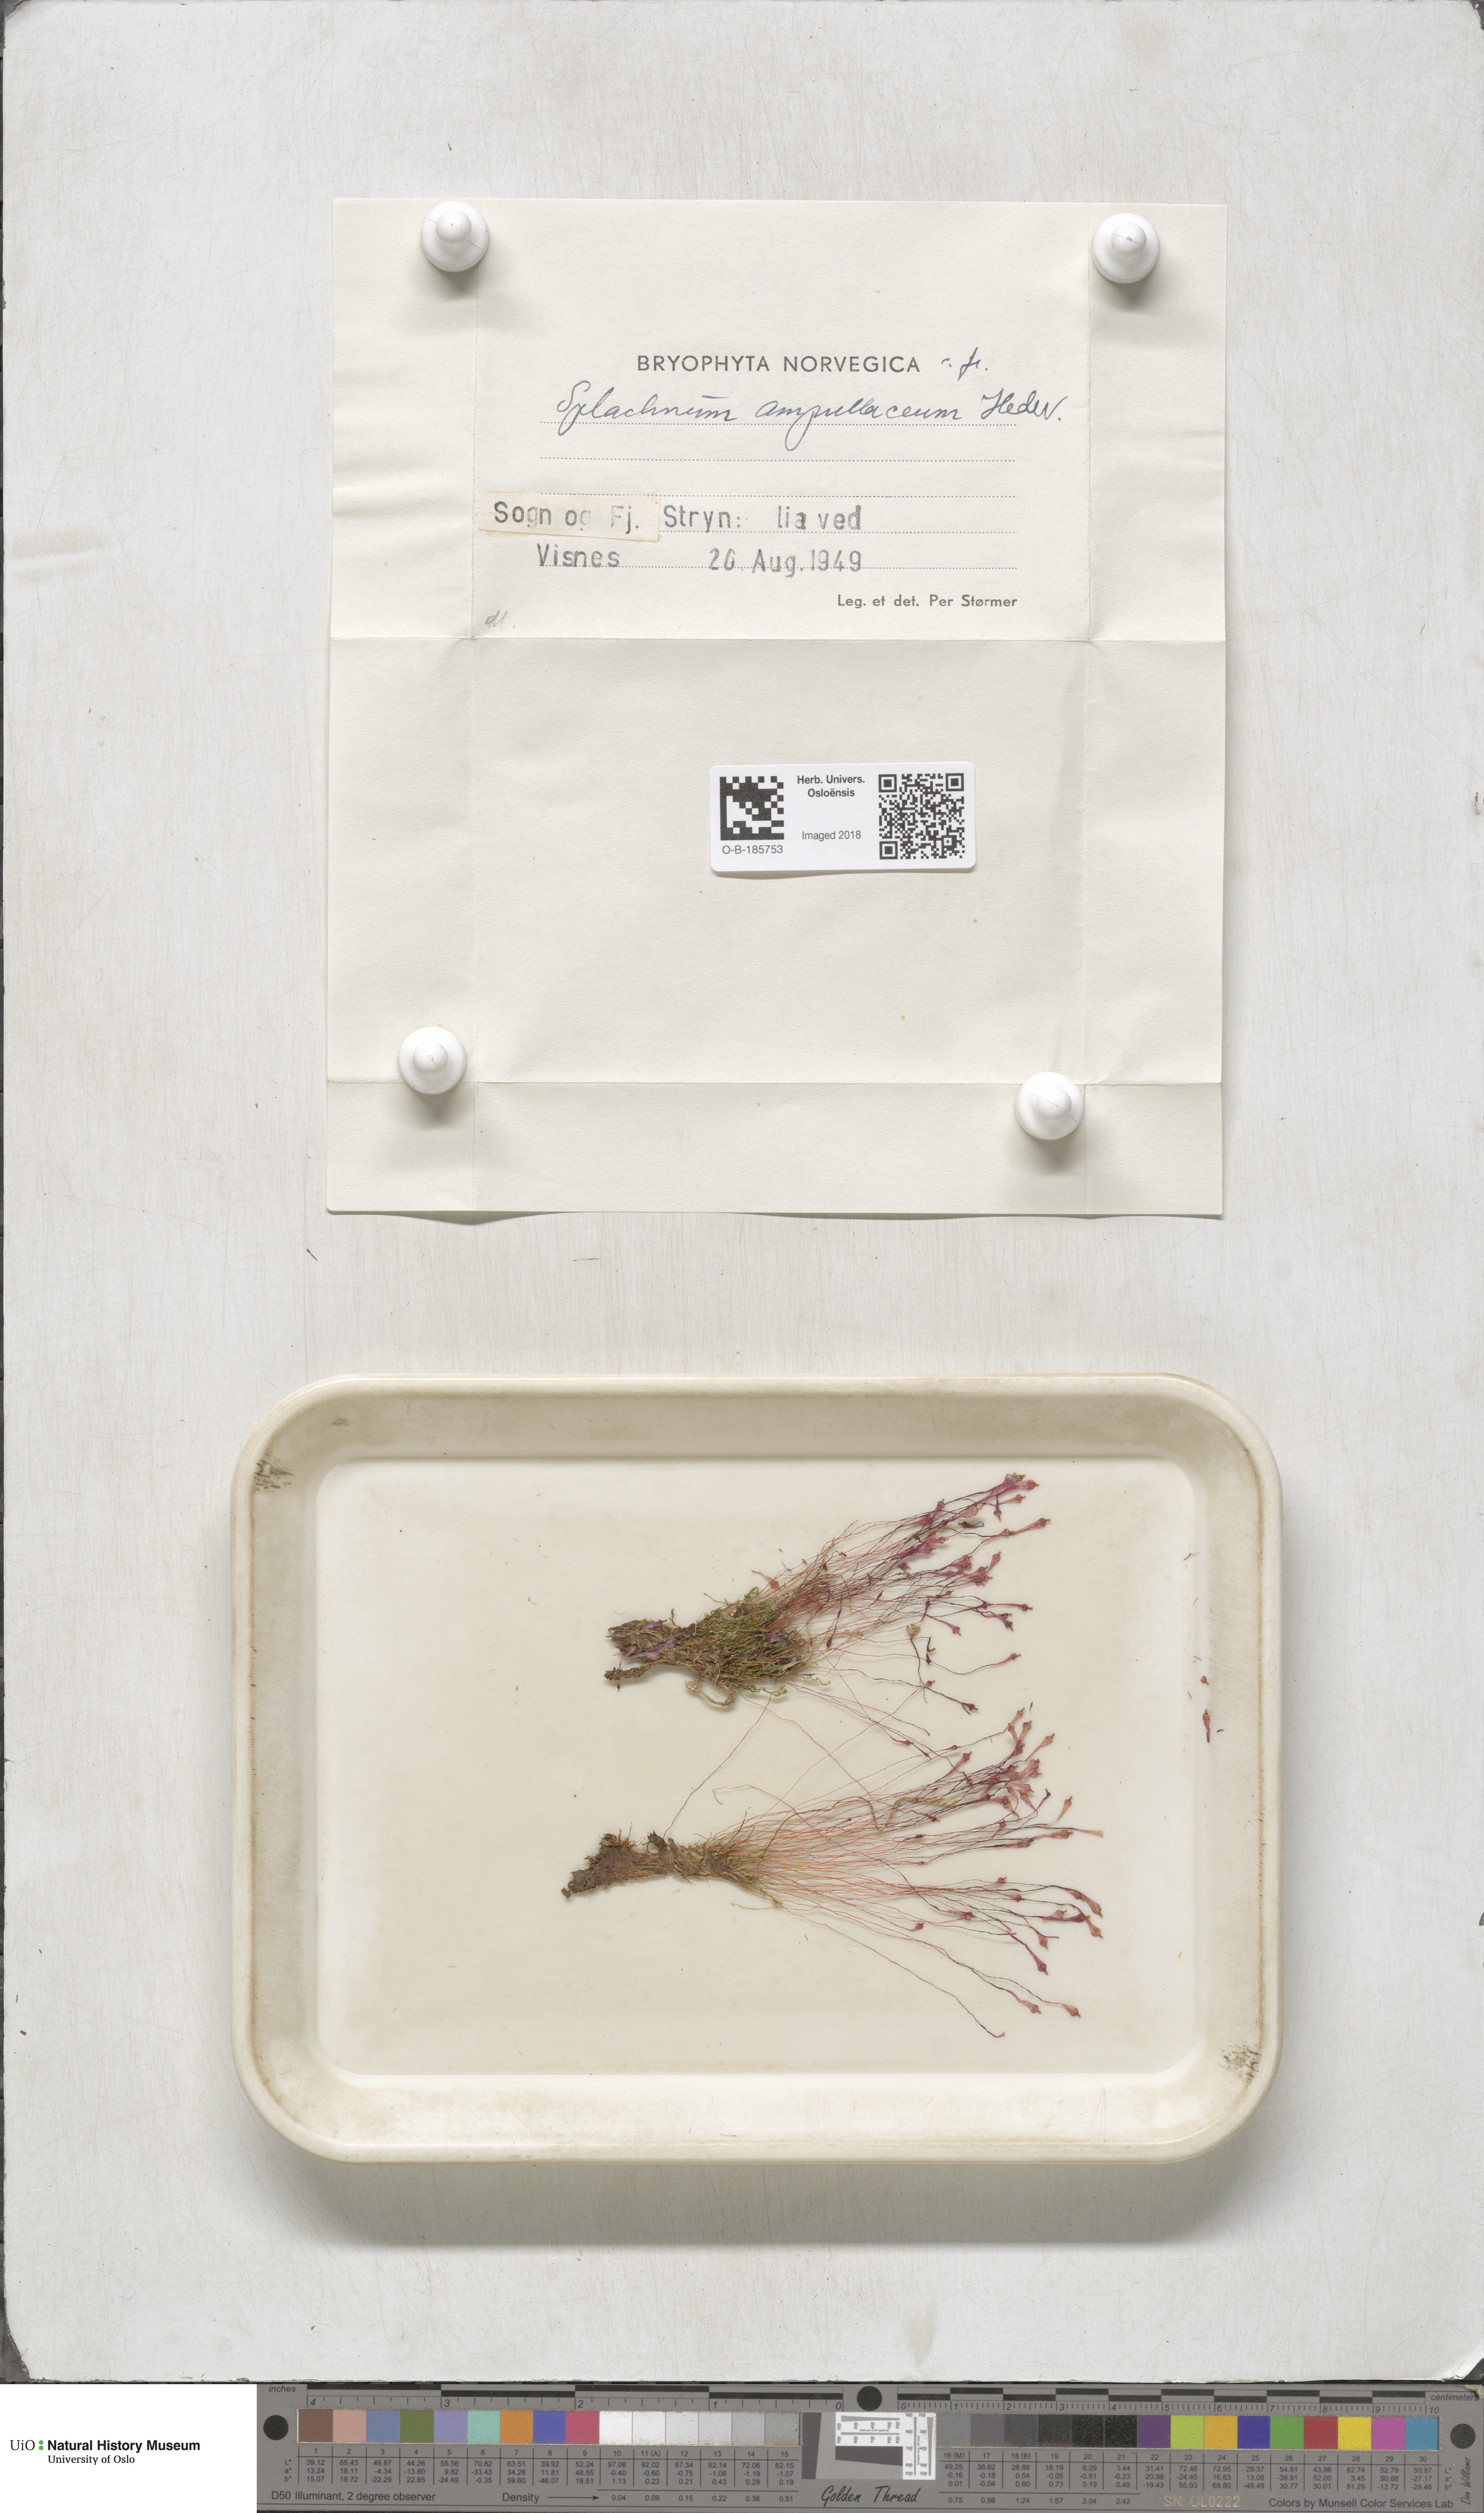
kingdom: Plantae
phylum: Bryophyta
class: Bryopsida
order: Splachnales
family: Splachnaceae
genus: Splachnum
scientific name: Splachnum ampullaceum
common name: Cruet dung moss
